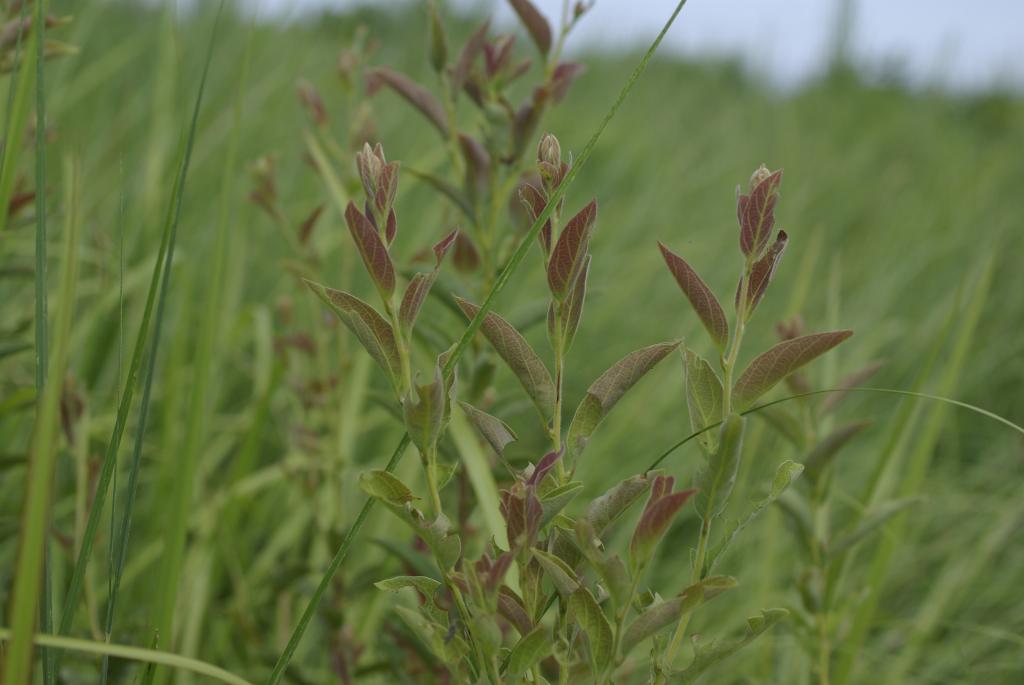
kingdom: Plantae
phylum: Tracheophyta
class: Magnoliopsida
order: Laurales
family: Lauraceae
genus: Lindera
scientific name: Lindera glauca
